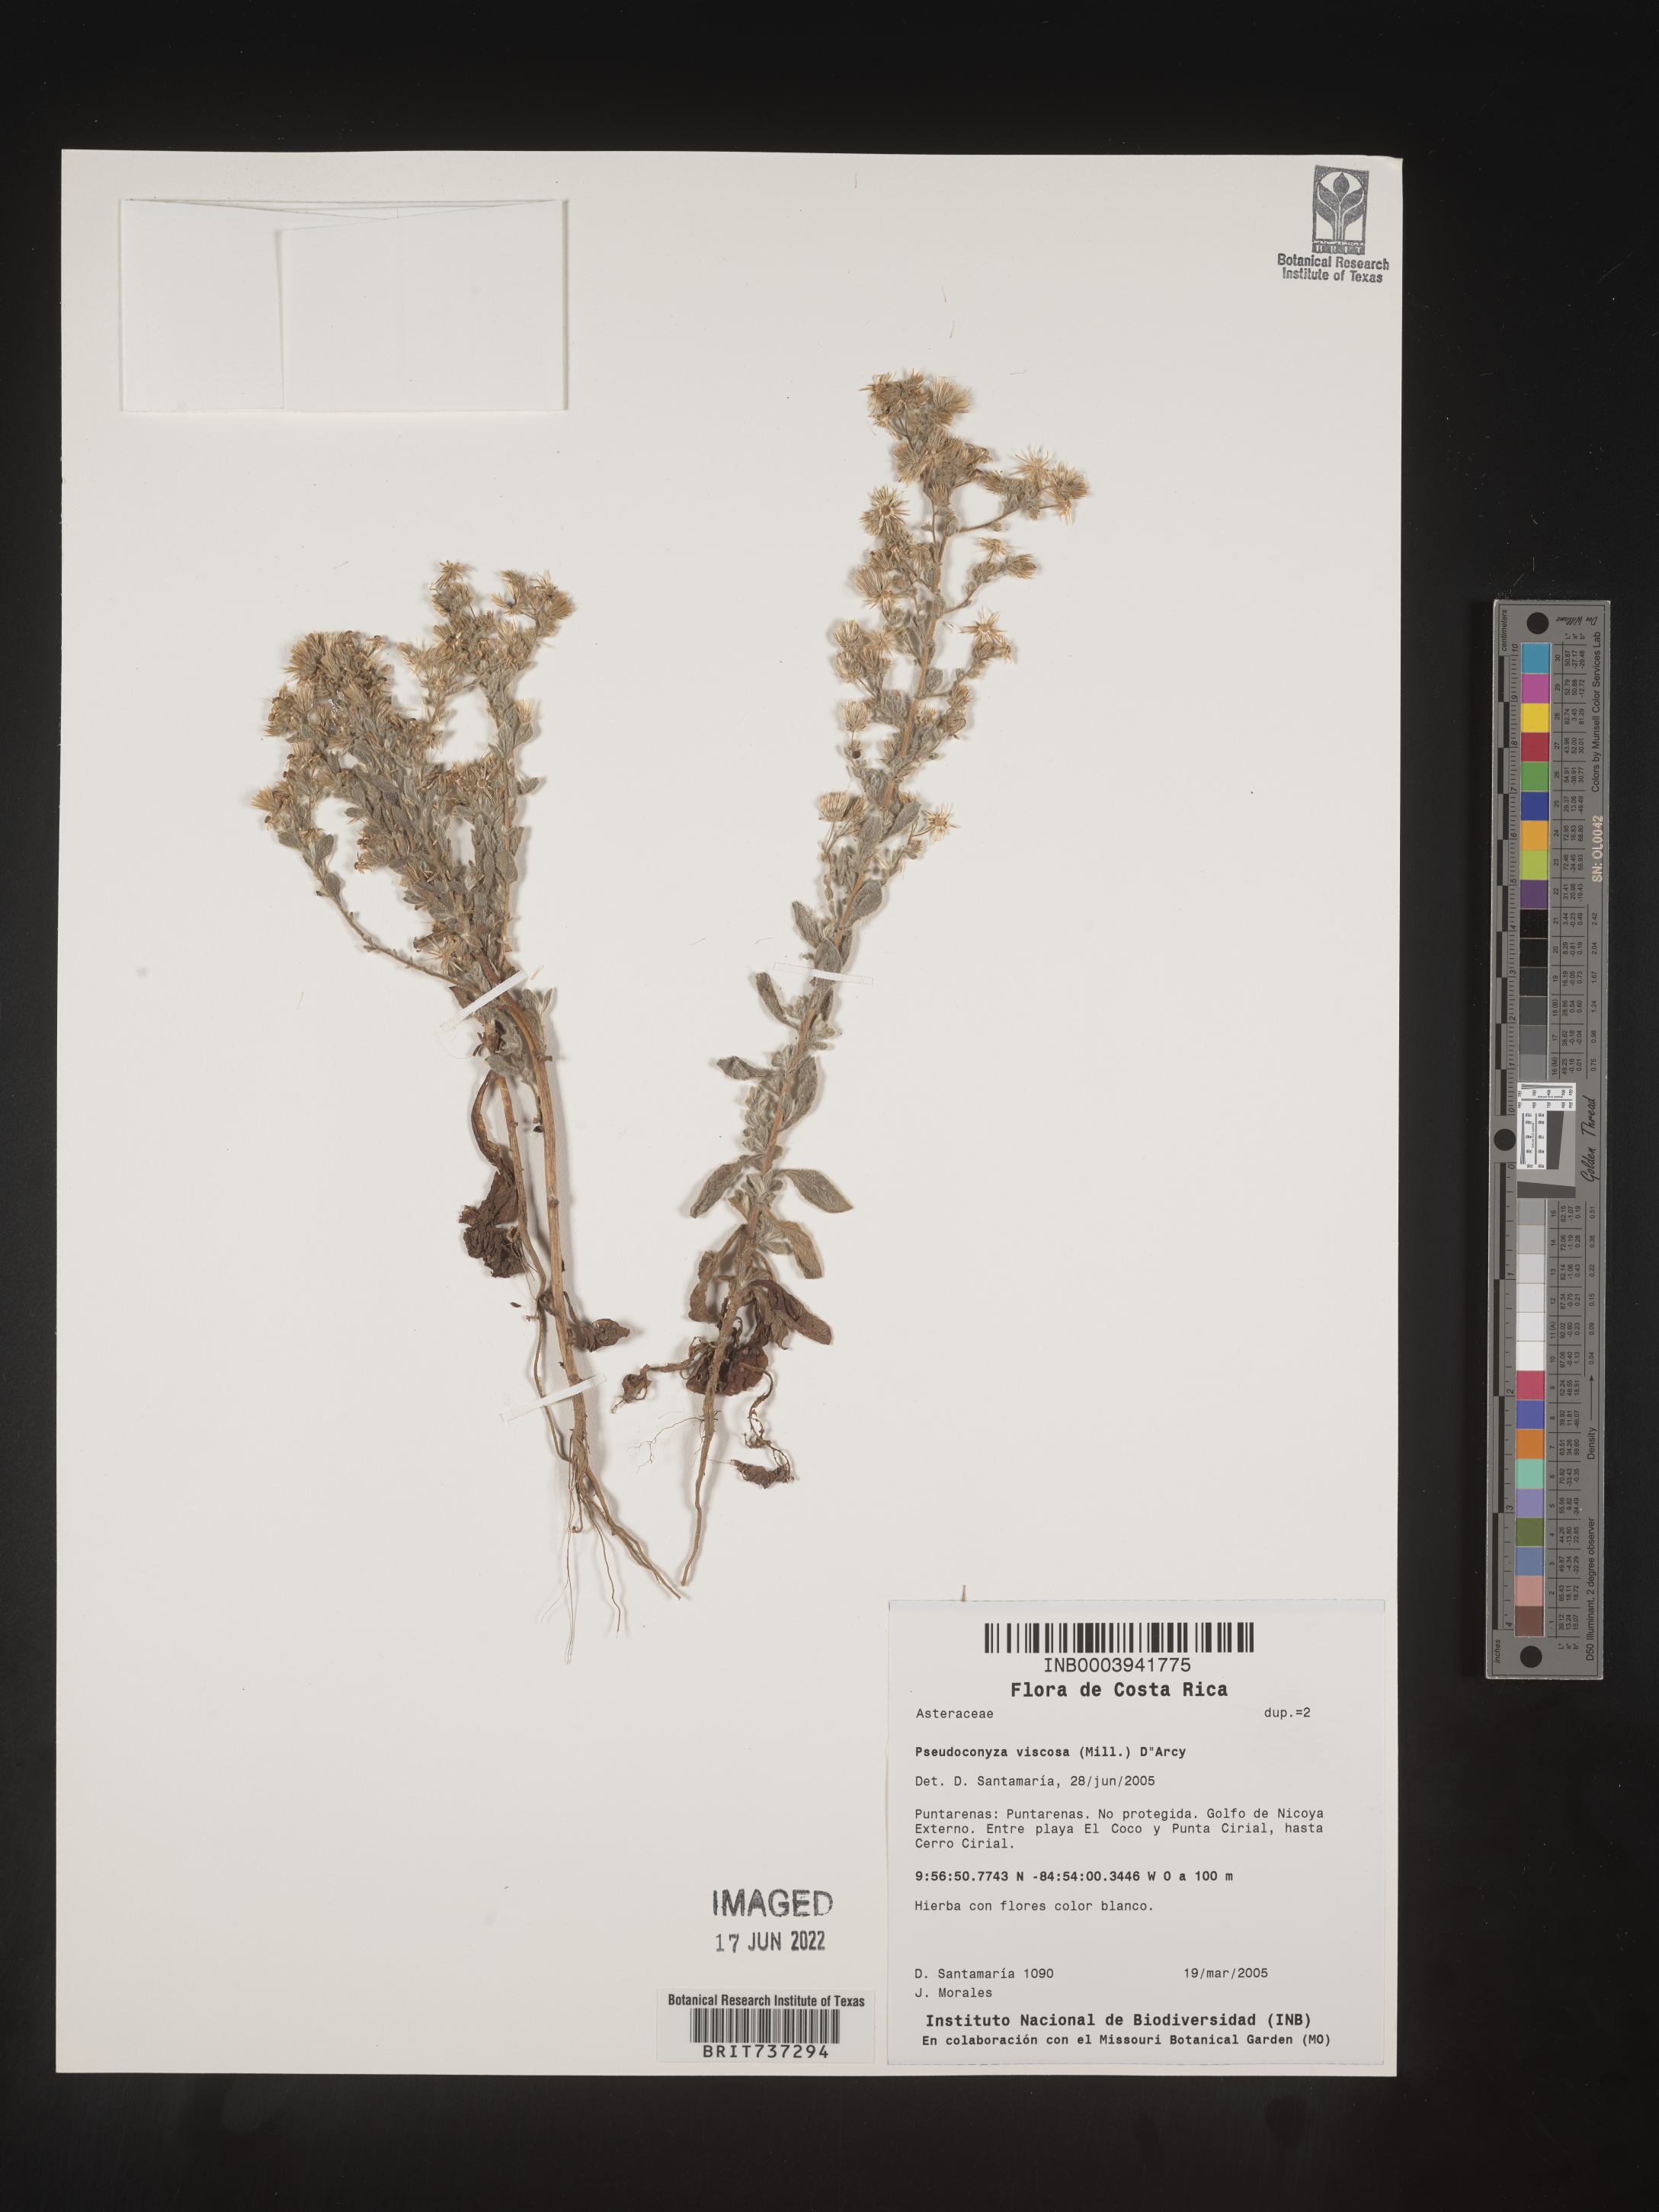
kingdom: Plantae
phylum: Tracheophyta
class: Magnoliopsida
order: Asterales
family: Asteraceae
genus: Pseudoconyza
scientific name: Pseudoconyza
